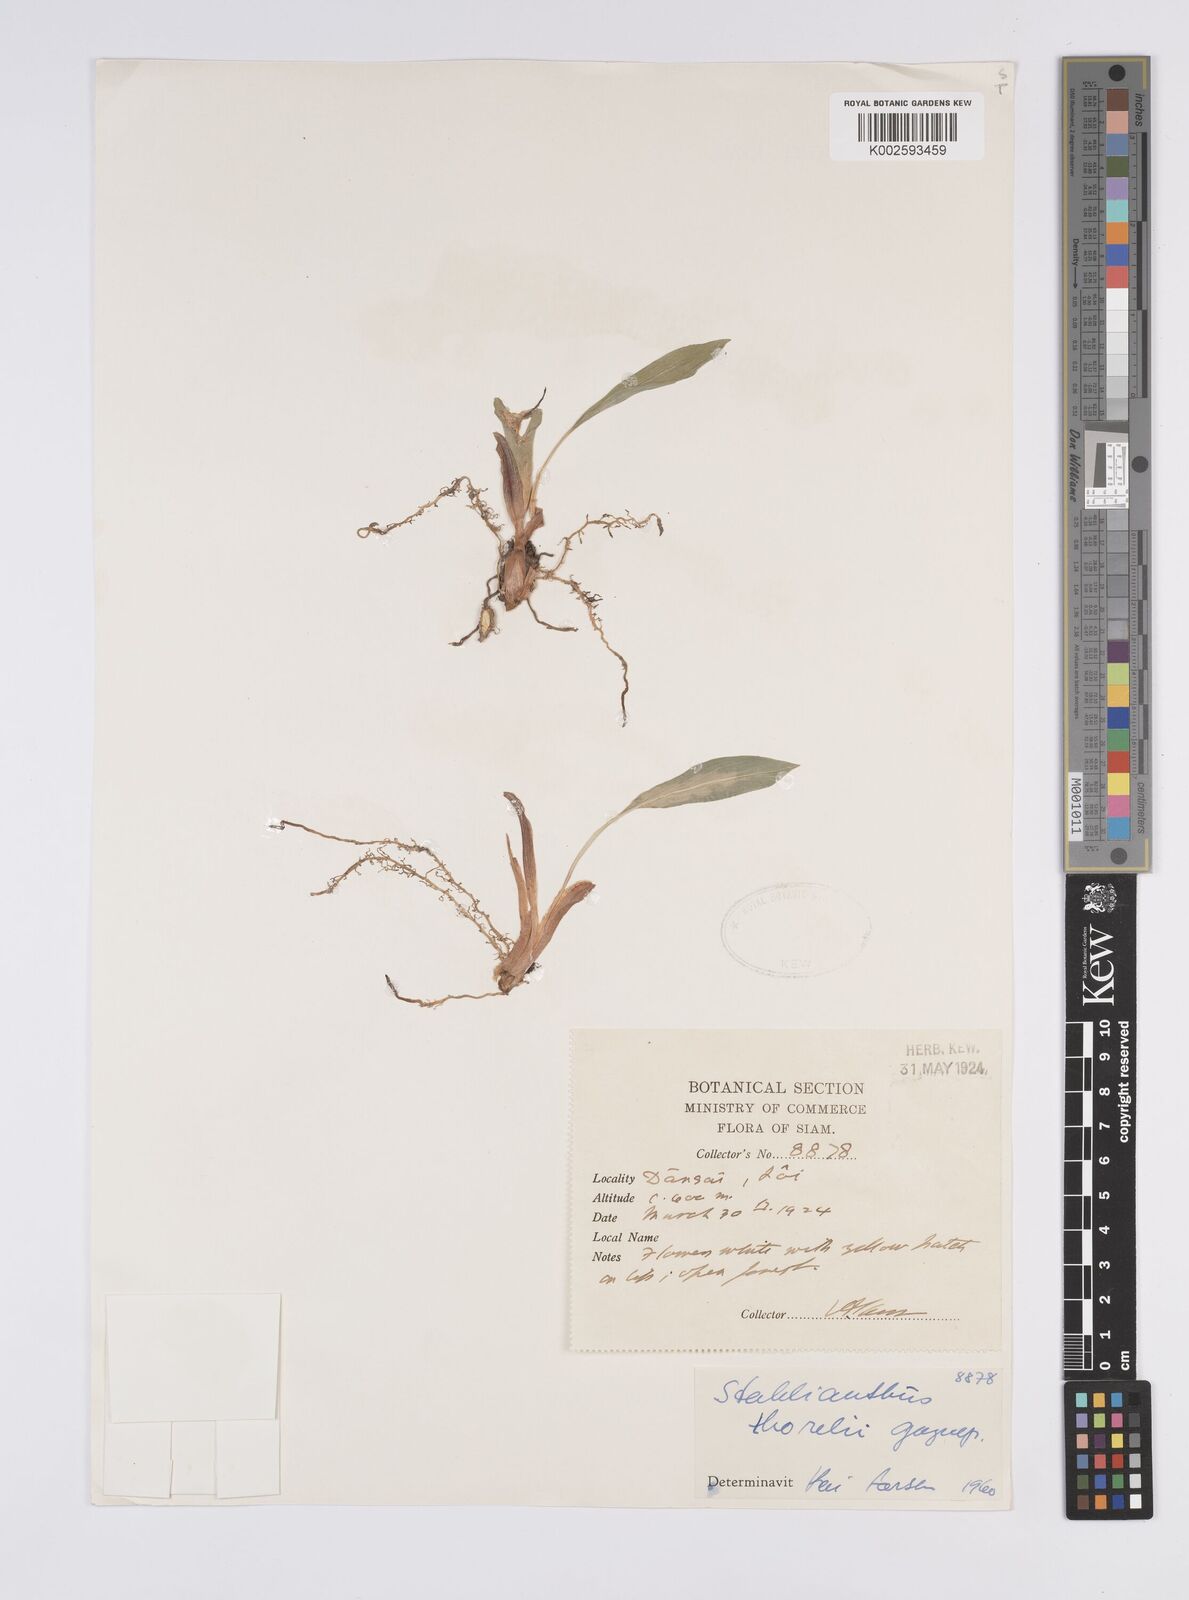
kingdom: Plantae
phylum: Tracheophyta
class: Liliopsida
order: Zingiberales
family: Zingiberaceae
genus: Curcuma
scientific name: Curcuma clovisii
